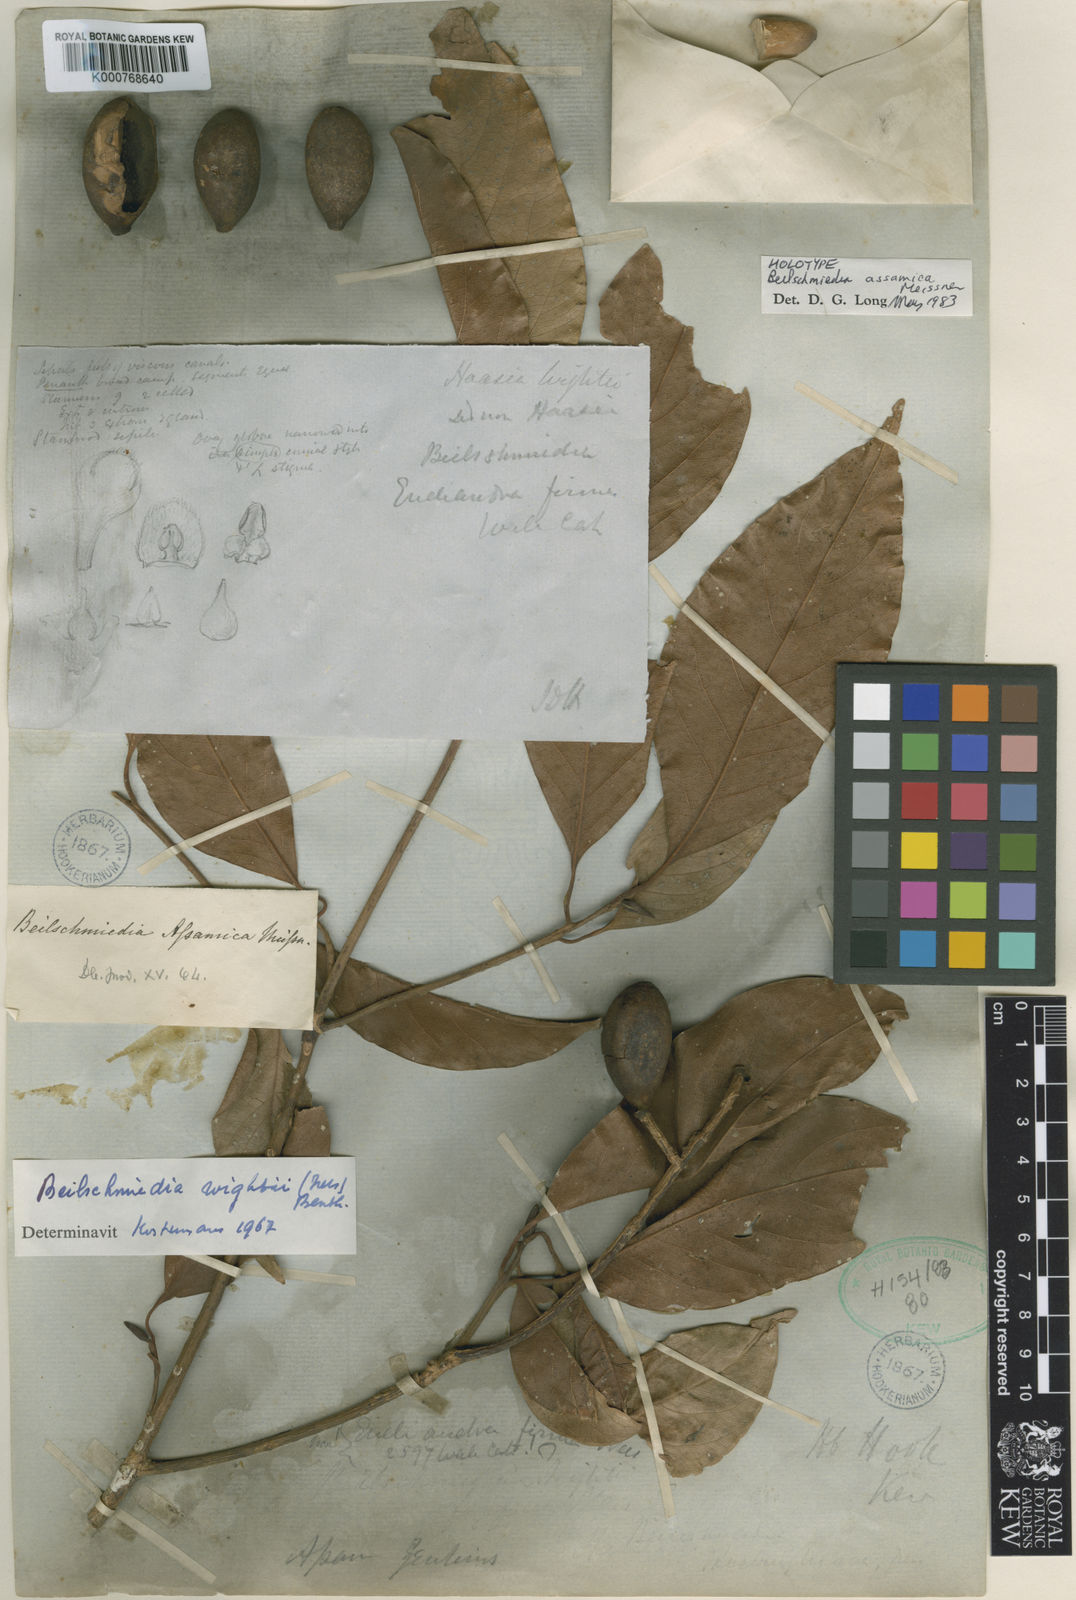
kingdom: Plantae
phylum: Tracheophyta
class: Magnoliopsida
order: Laurales
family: Lauraceae
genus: Beilschmiedia
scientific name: Beilschmiedia assamica
